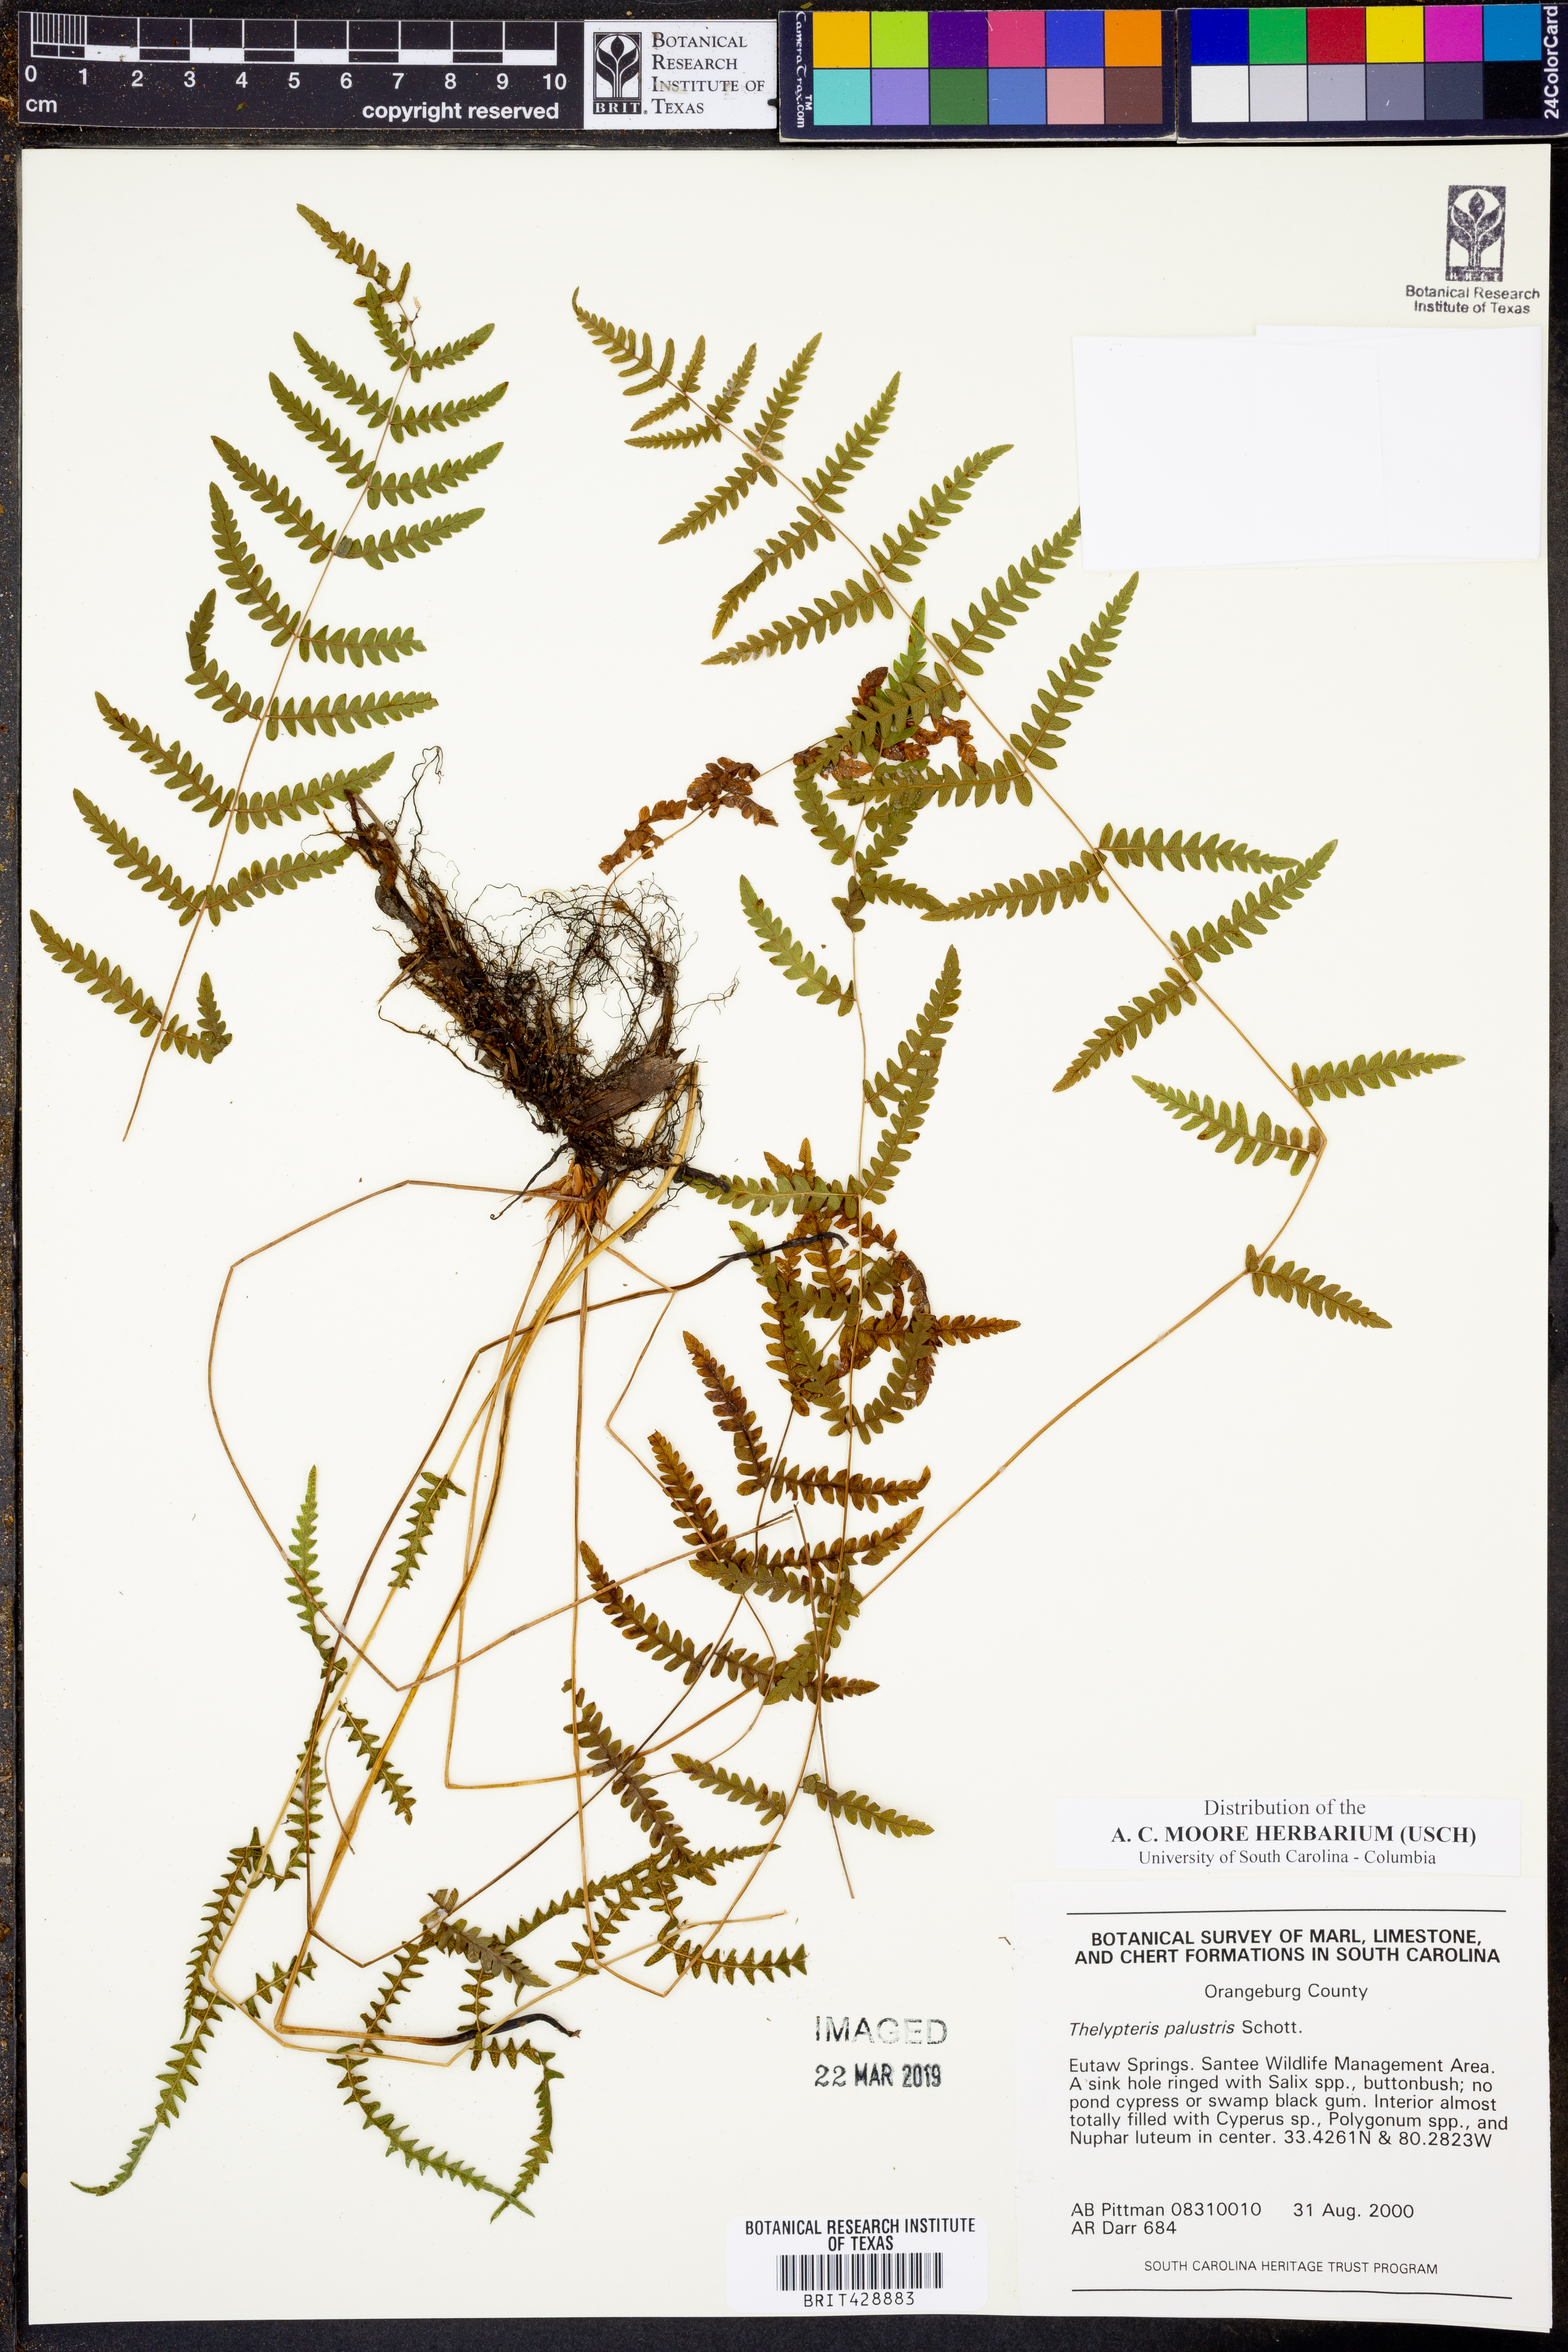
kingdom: Plantae
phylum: Tracheophyta
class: Polypodiopsida
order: Polypodiales
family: Thelypteridaceae
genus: Thelypteris
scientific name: Thelypteris palustris
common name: Marsh fern
